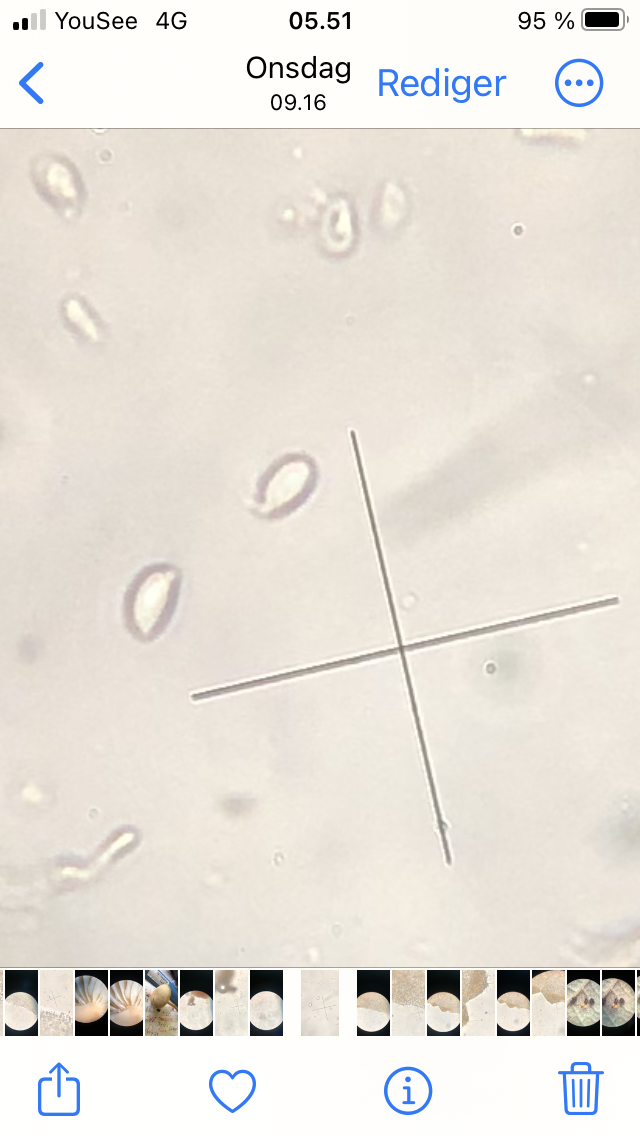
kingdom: Fungi
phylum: Basidiomycota
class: Agaricomycetes
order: Agaricales
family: Omphalotaceae
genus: Gymnopus
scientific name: Gymnopus aquosus
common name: bleg fladhat
